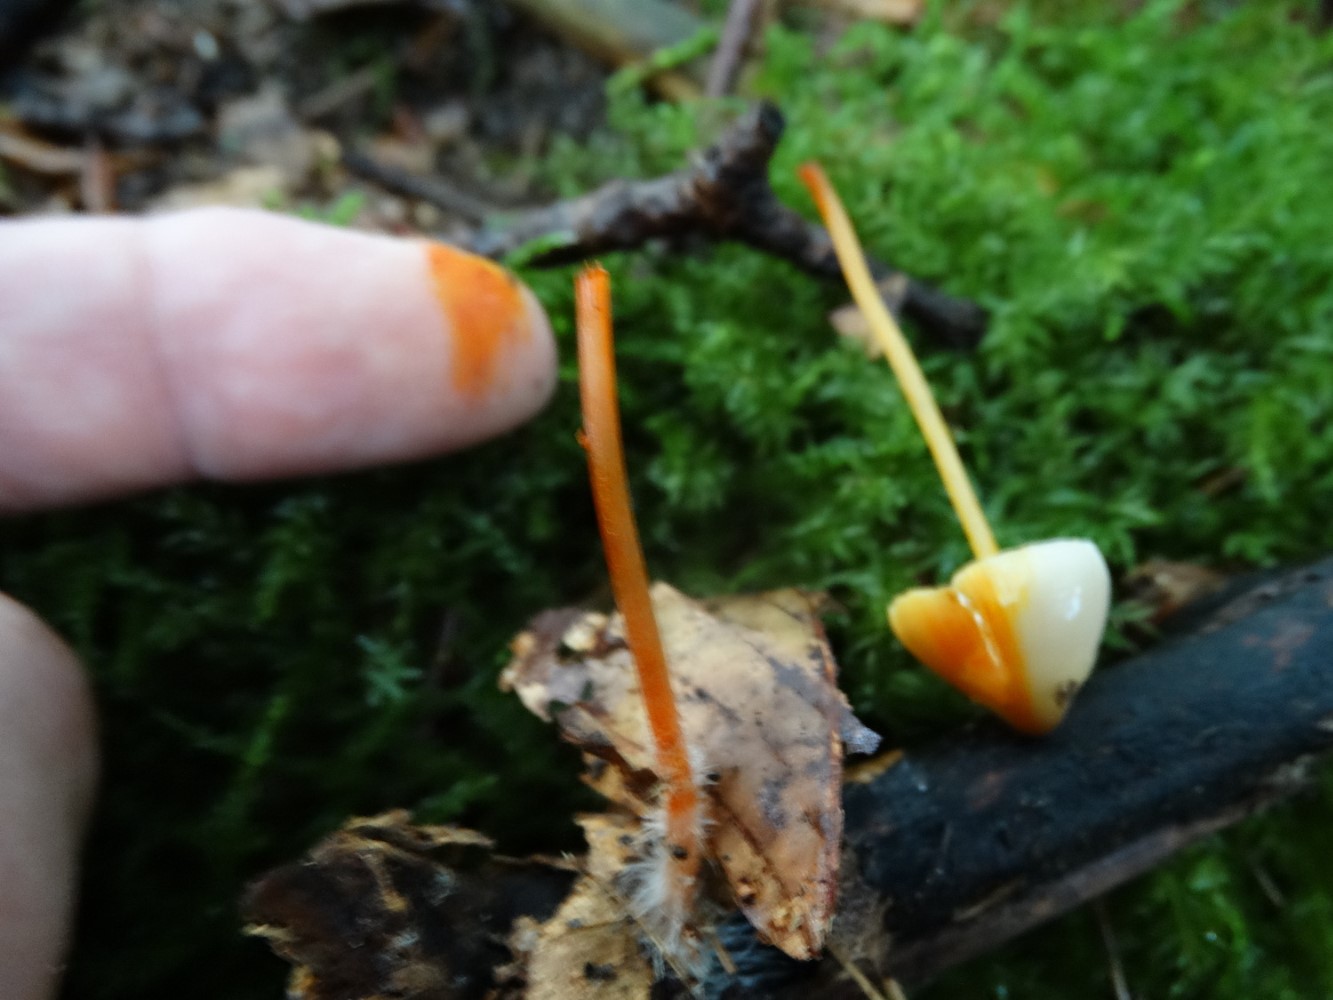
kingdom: Fungi
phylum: Basidiomycota
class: Agaricomycetes
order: Agaricales
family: Mycenaceae
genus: Mycena
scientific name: Mycena crocata
